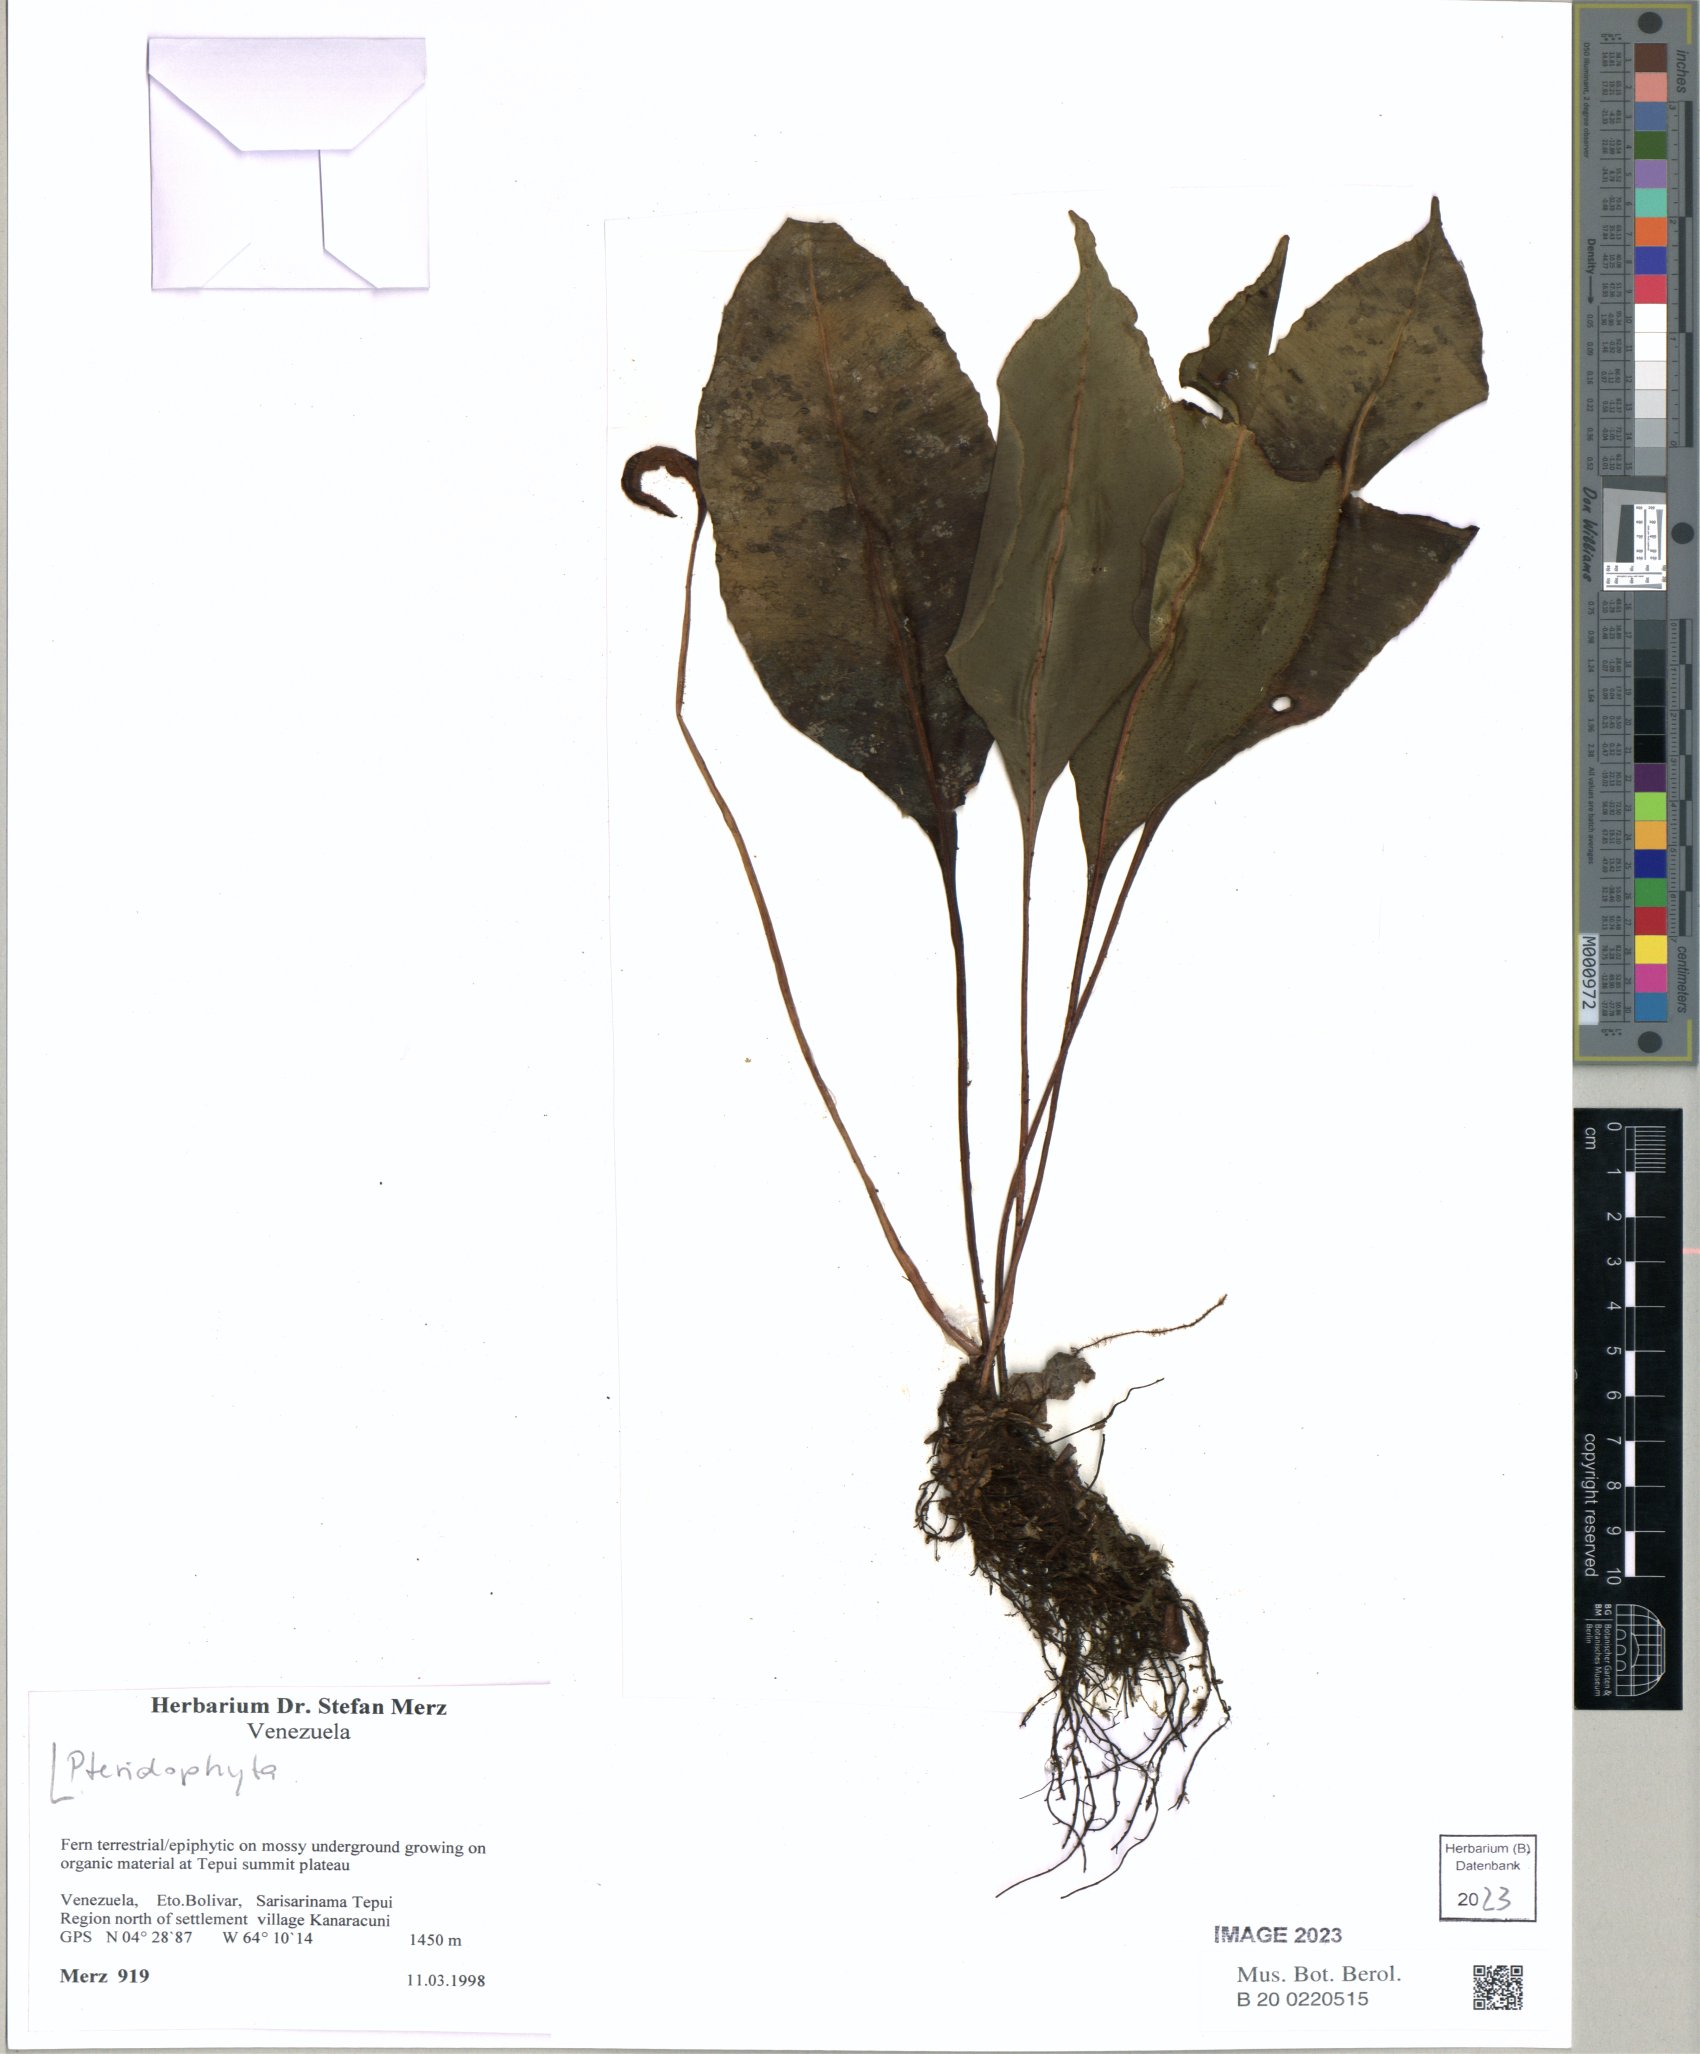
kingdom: Plantae
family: Pteridophyta
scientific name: Pteridophyta
